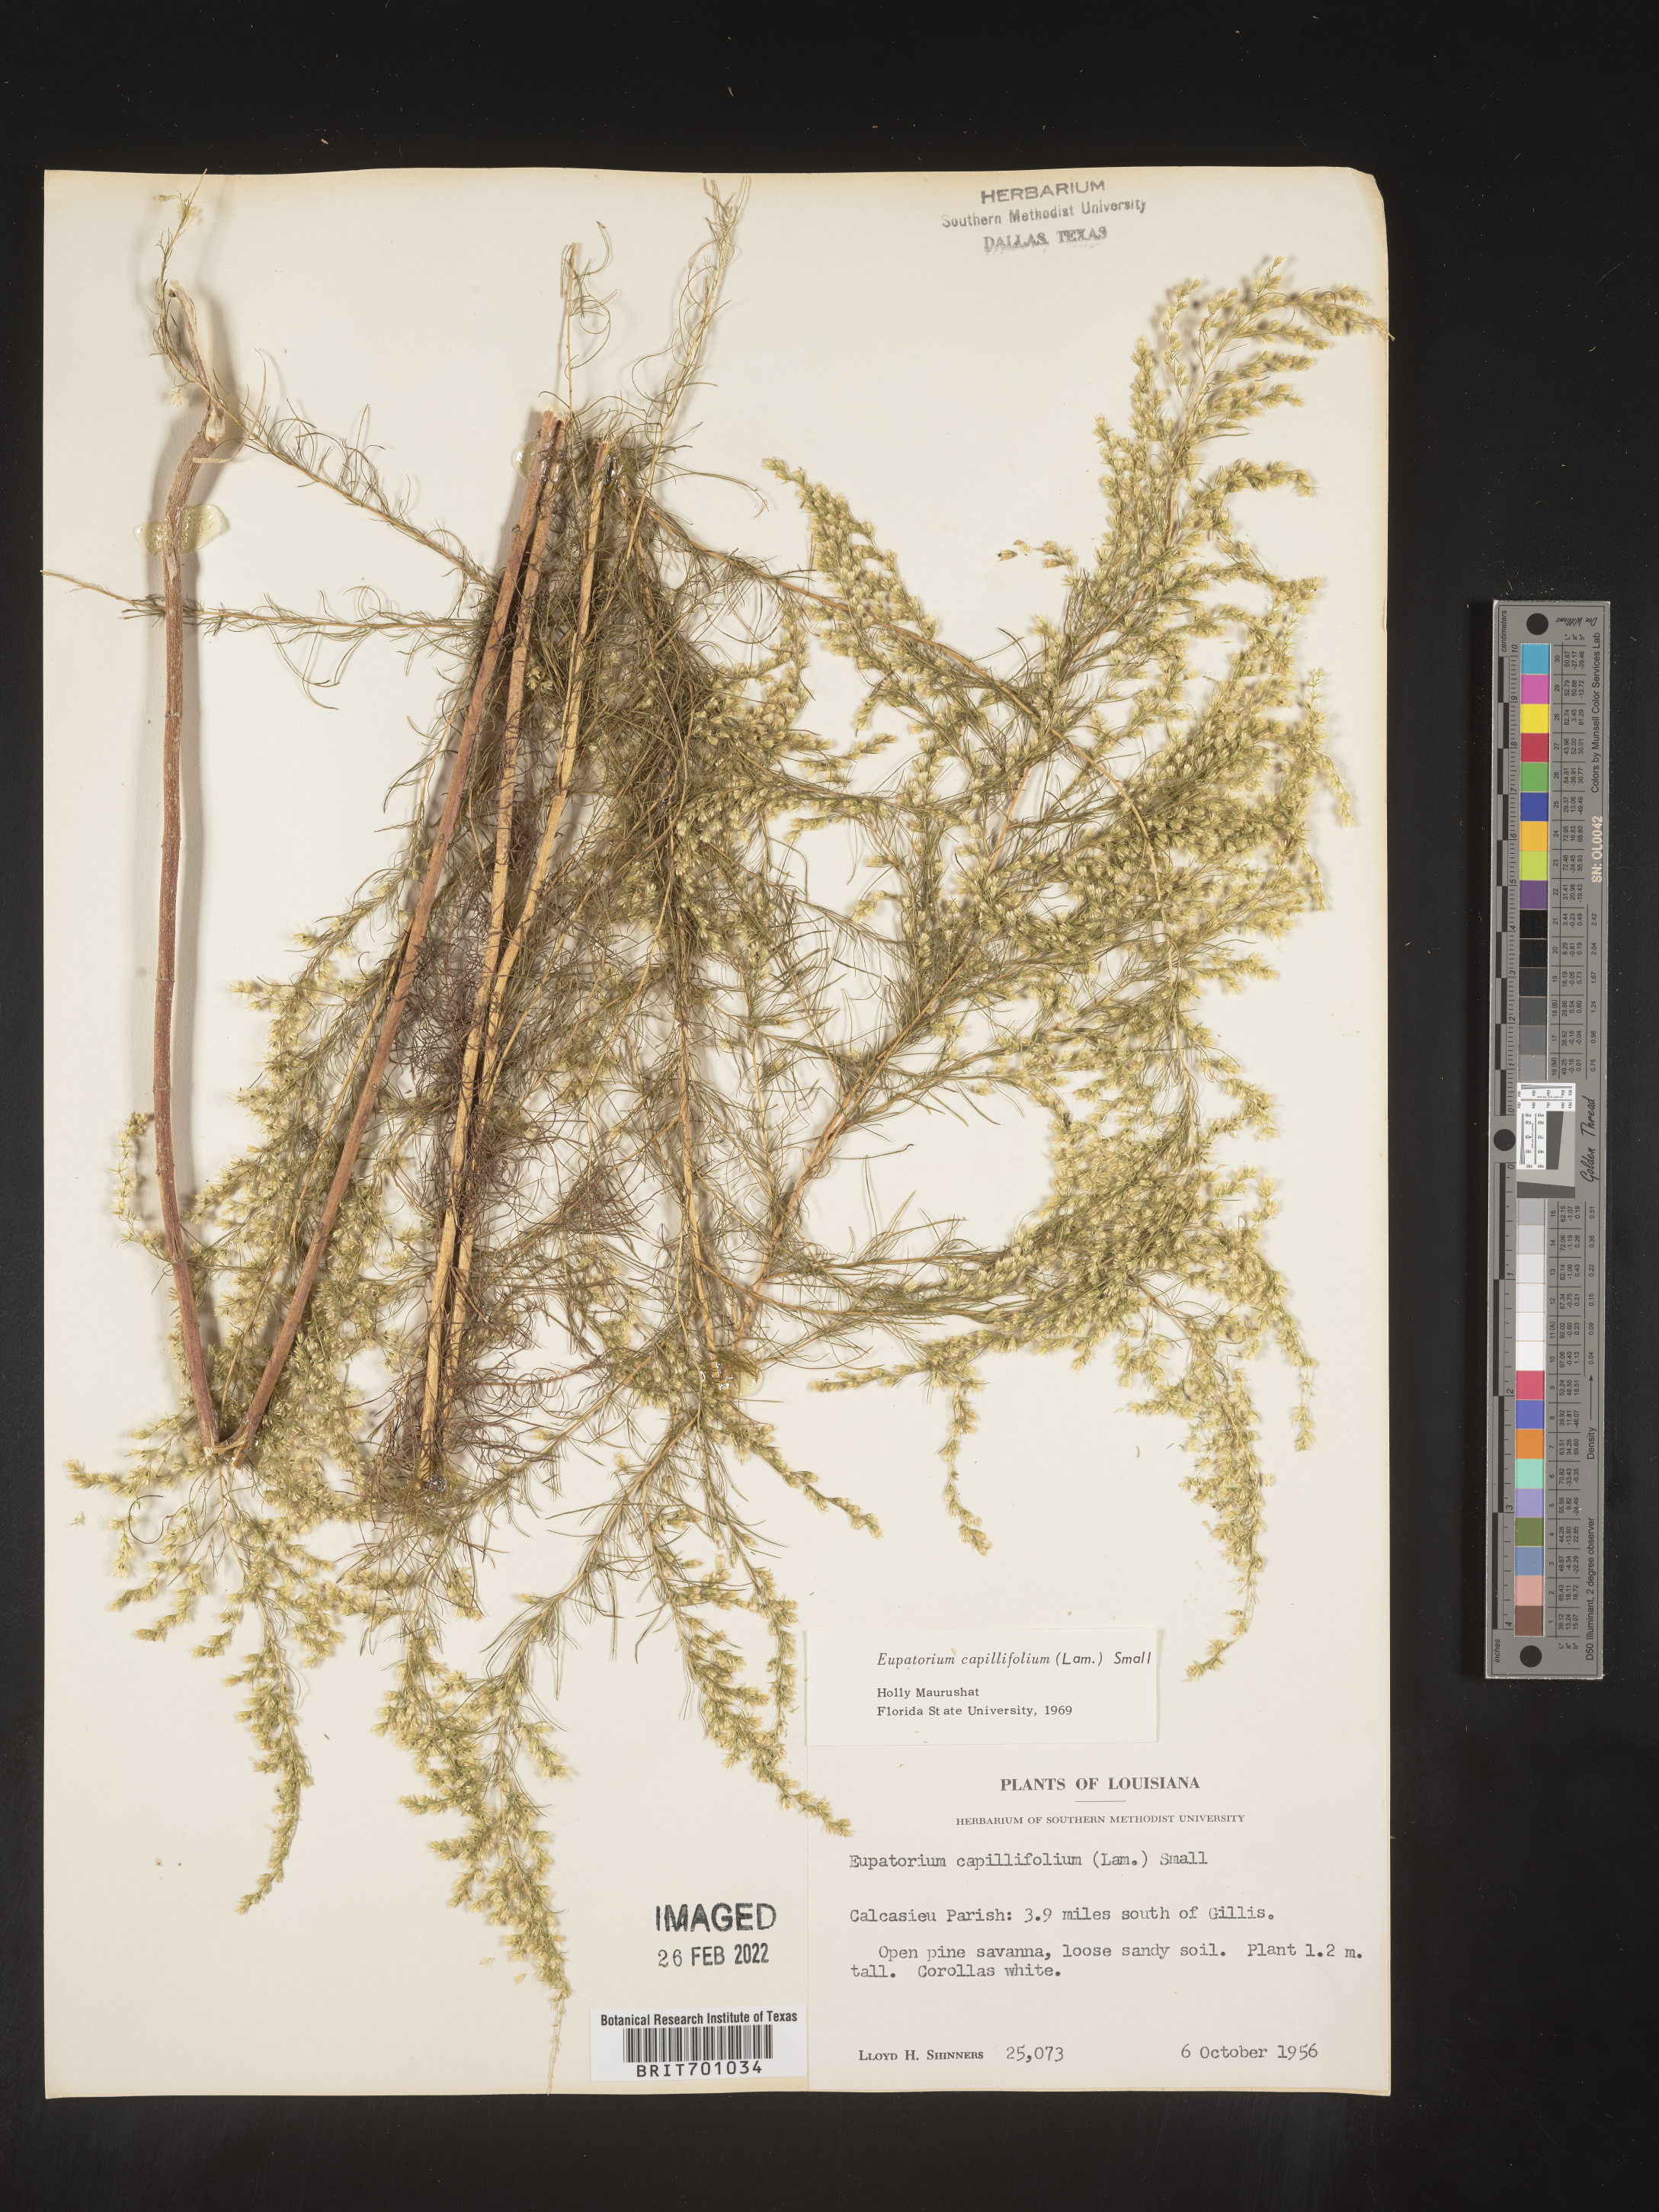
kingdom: Plantae
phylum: Tracheophyta
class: Magnoliopsida
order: Asterales
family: Asteraceae
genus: Eupatorium
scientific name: Eupatorium capillifolium
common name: Dog-fennel
